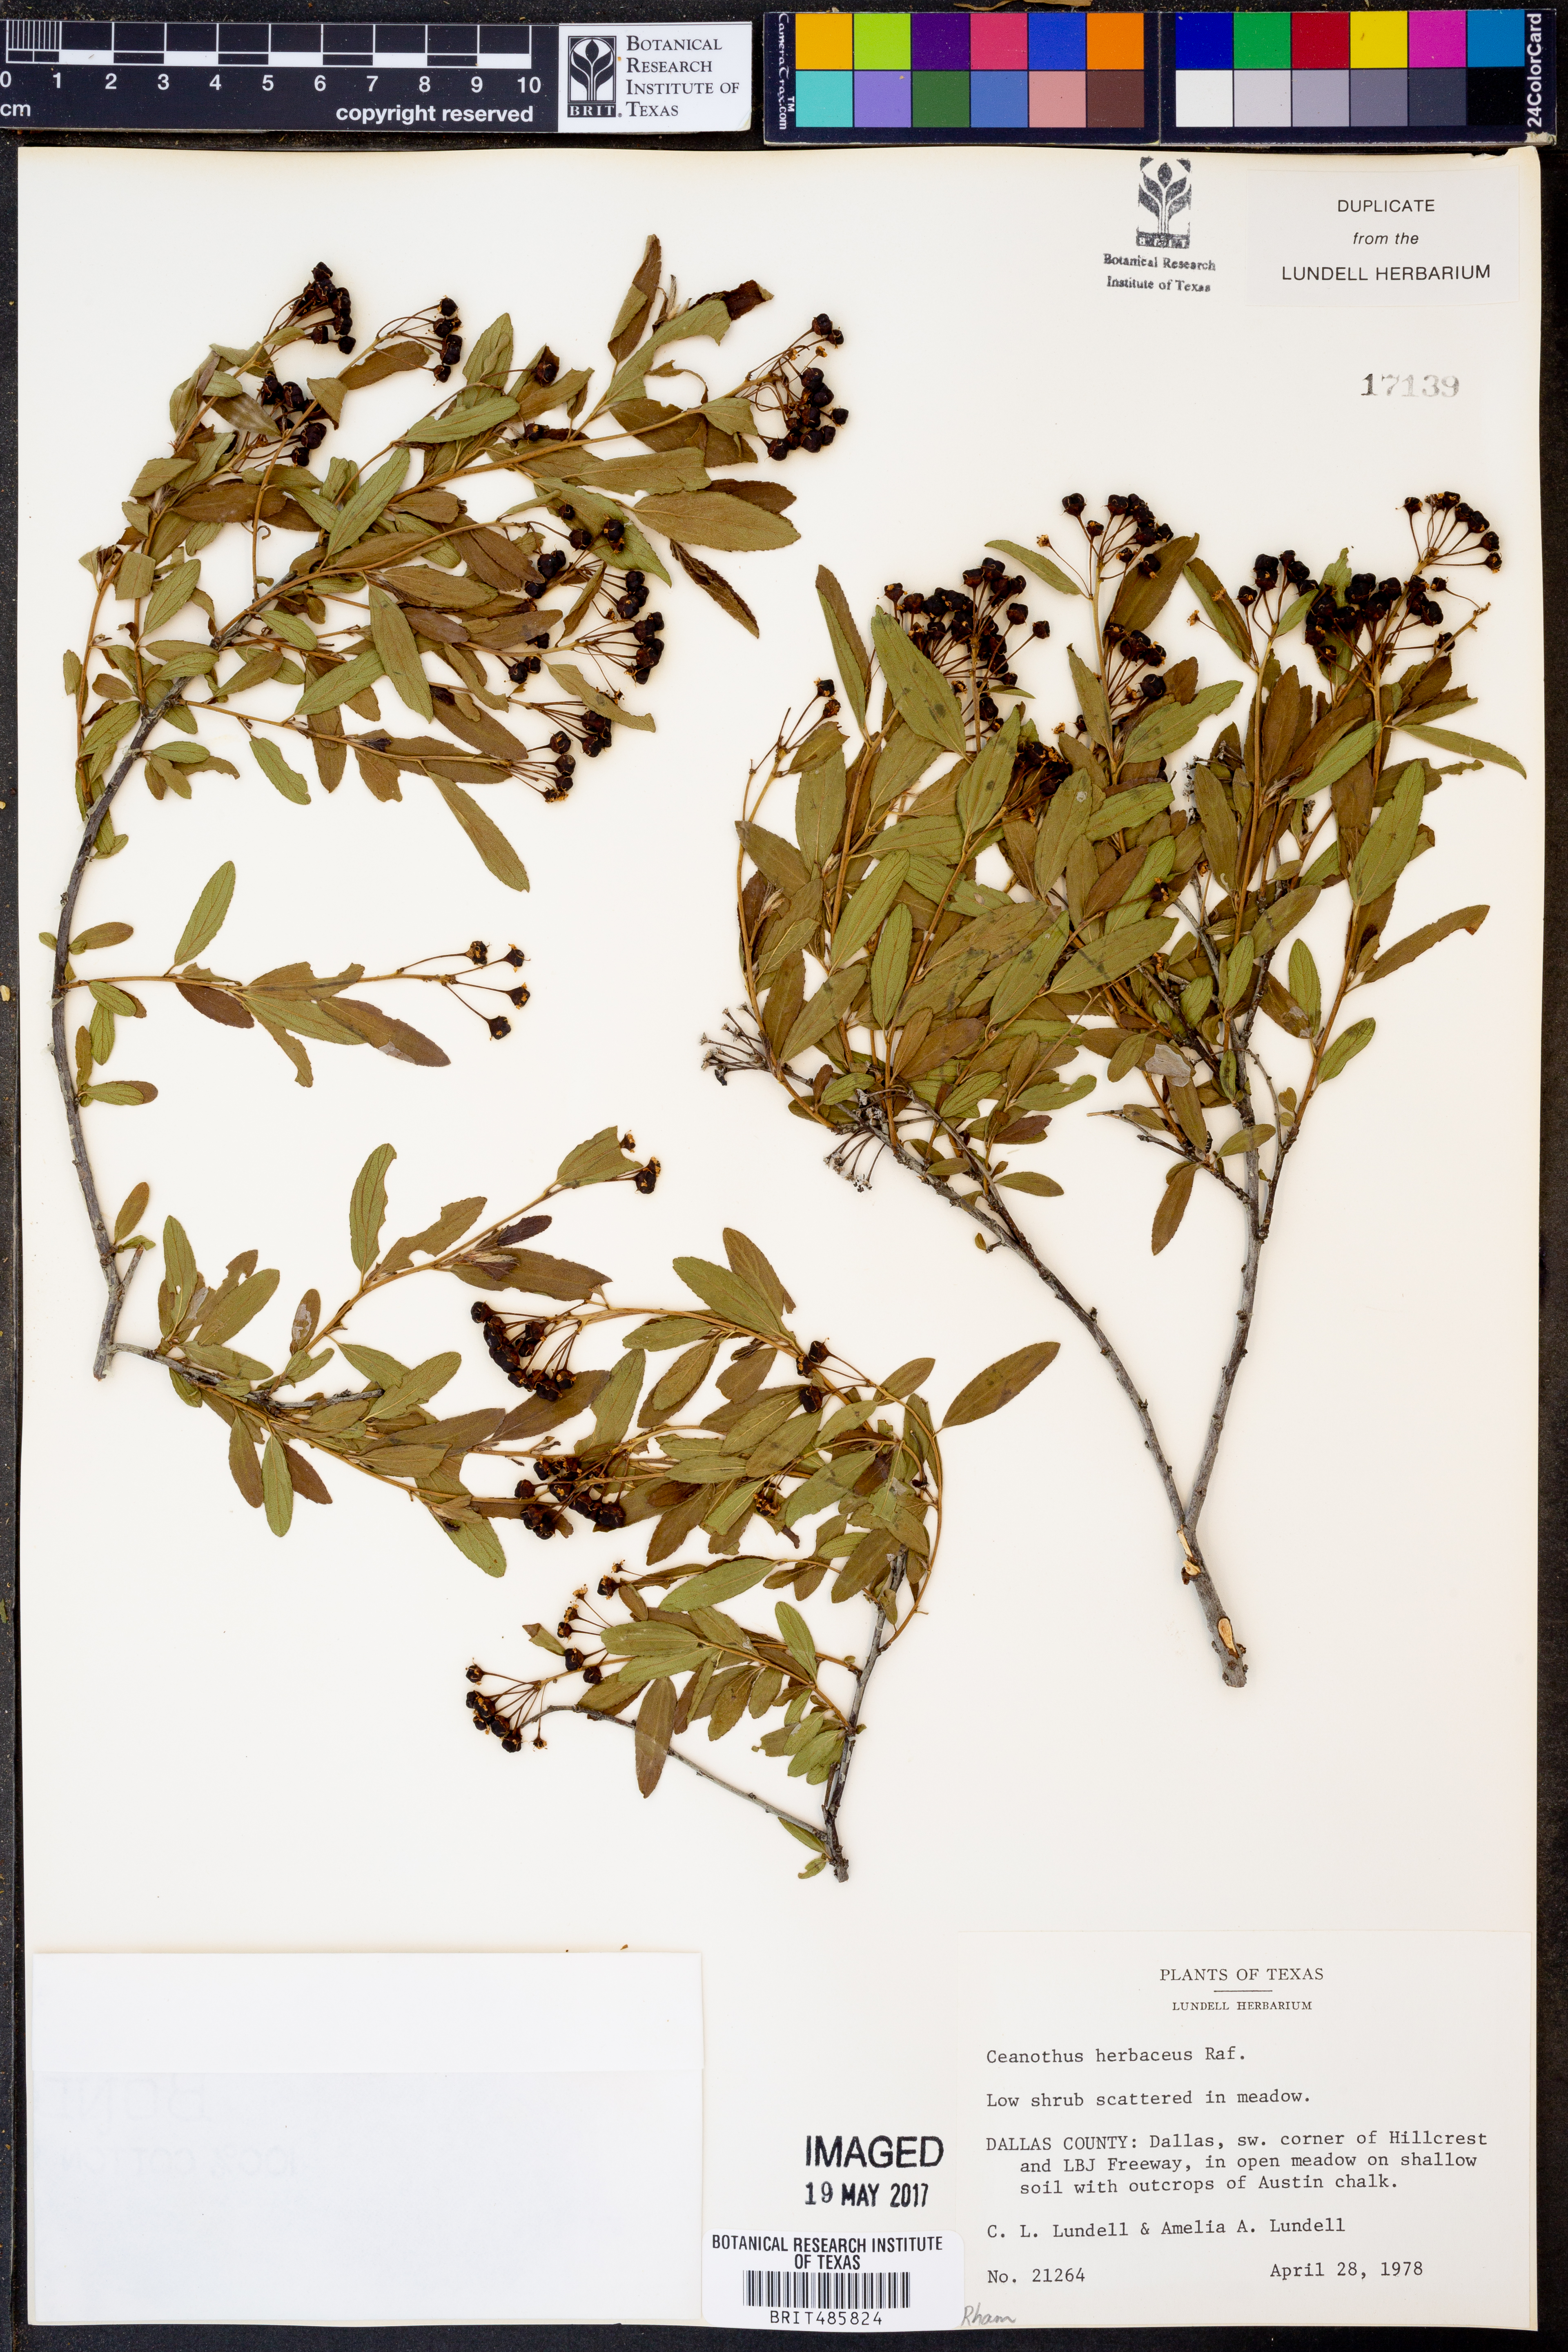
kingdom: Plantae
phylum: Tracheophyta
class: Magnoliopsida
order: Rosales
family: Rhamnaceae
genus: Ceanothus
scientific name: Ceanothus herbaceus
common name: Inland ceanothus
